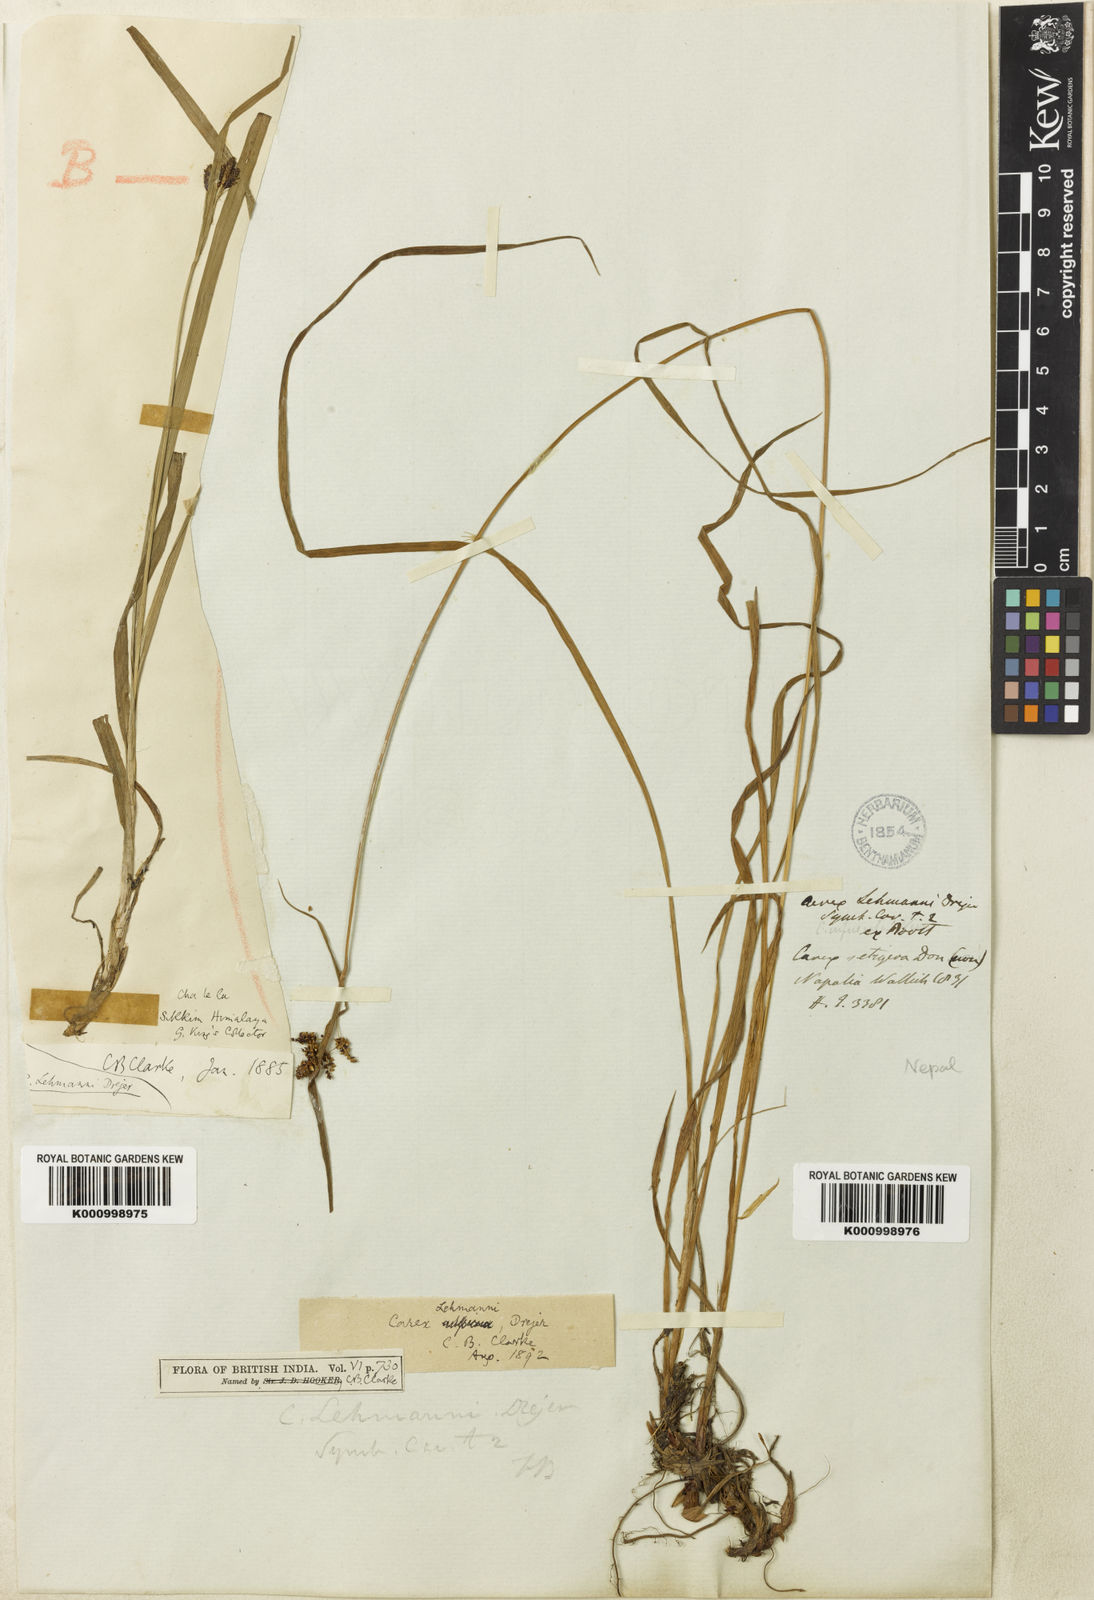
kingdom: Plantae
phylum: Tracheophyta
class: Liliopsida
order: Poales
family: Cyperaceae
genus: Carex
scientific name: Carex lehmannii
